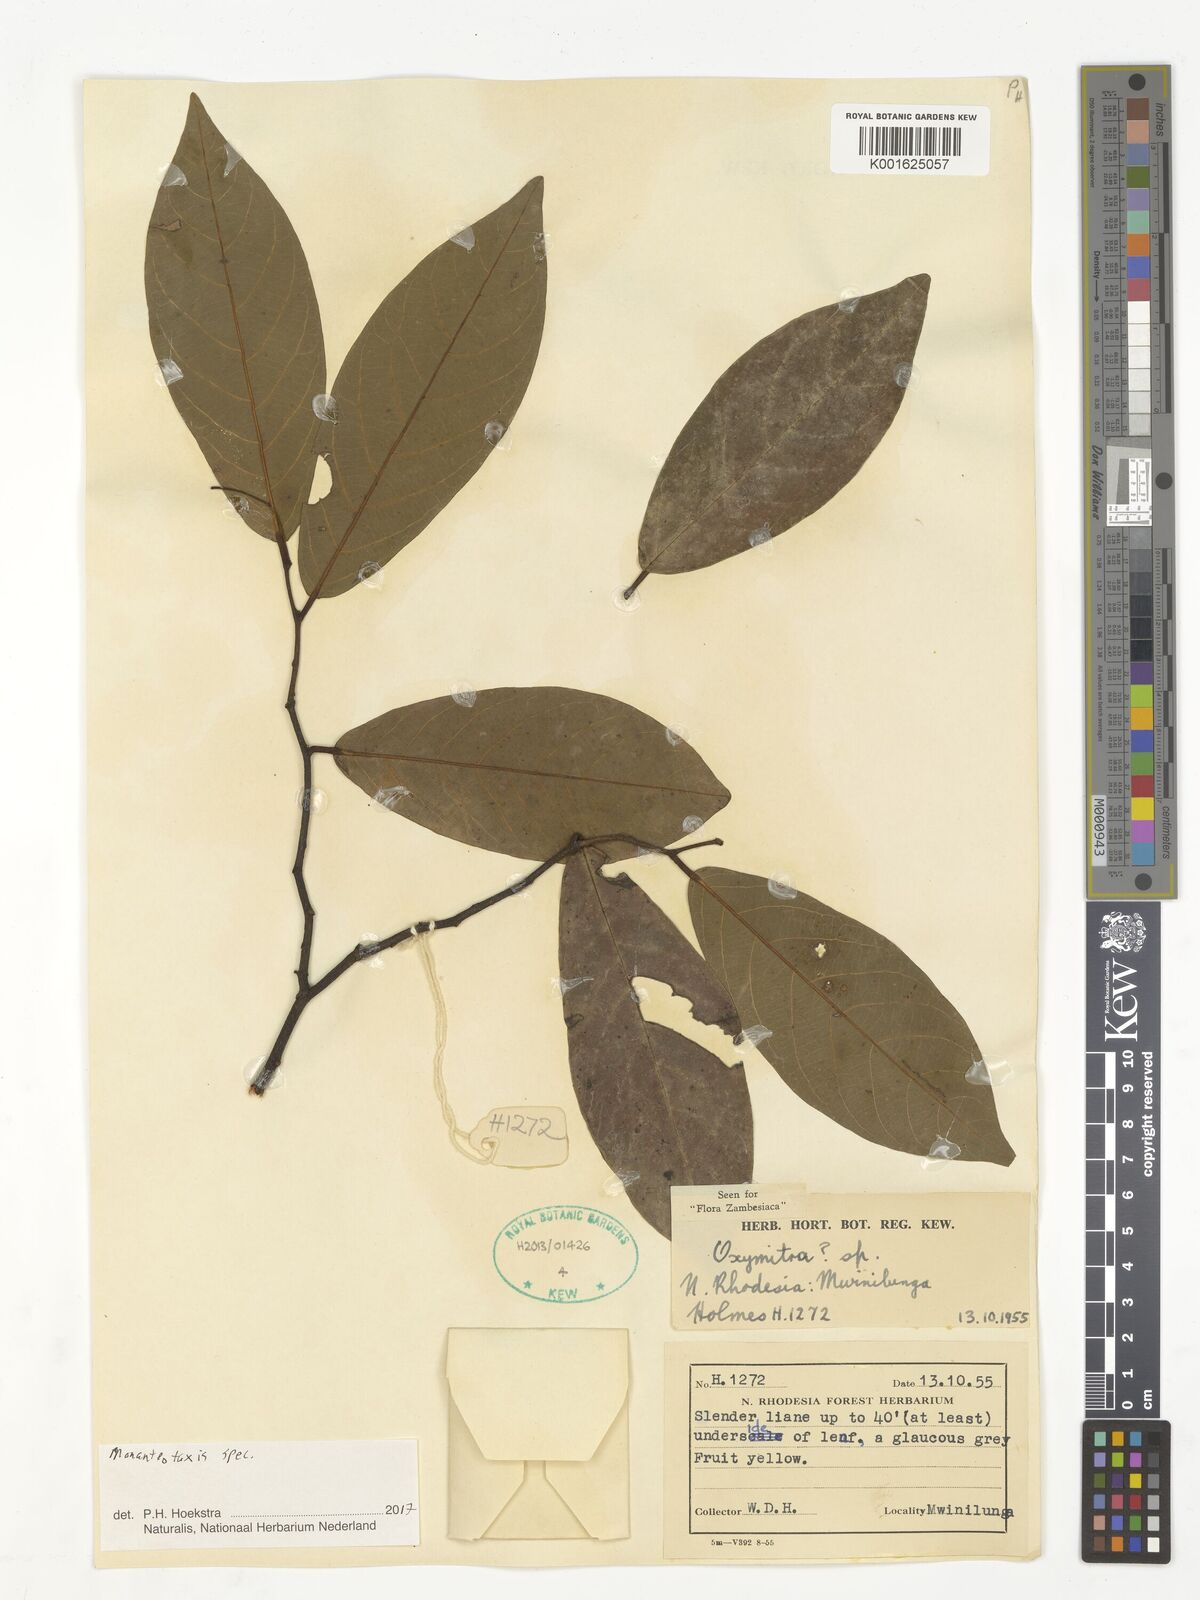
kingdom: Plantae
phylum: Tracheophyta
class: Magnoliopsida
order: Magnoliales
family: Annonaceae
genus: Monanthotaxis
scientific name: Monanthotaxis
